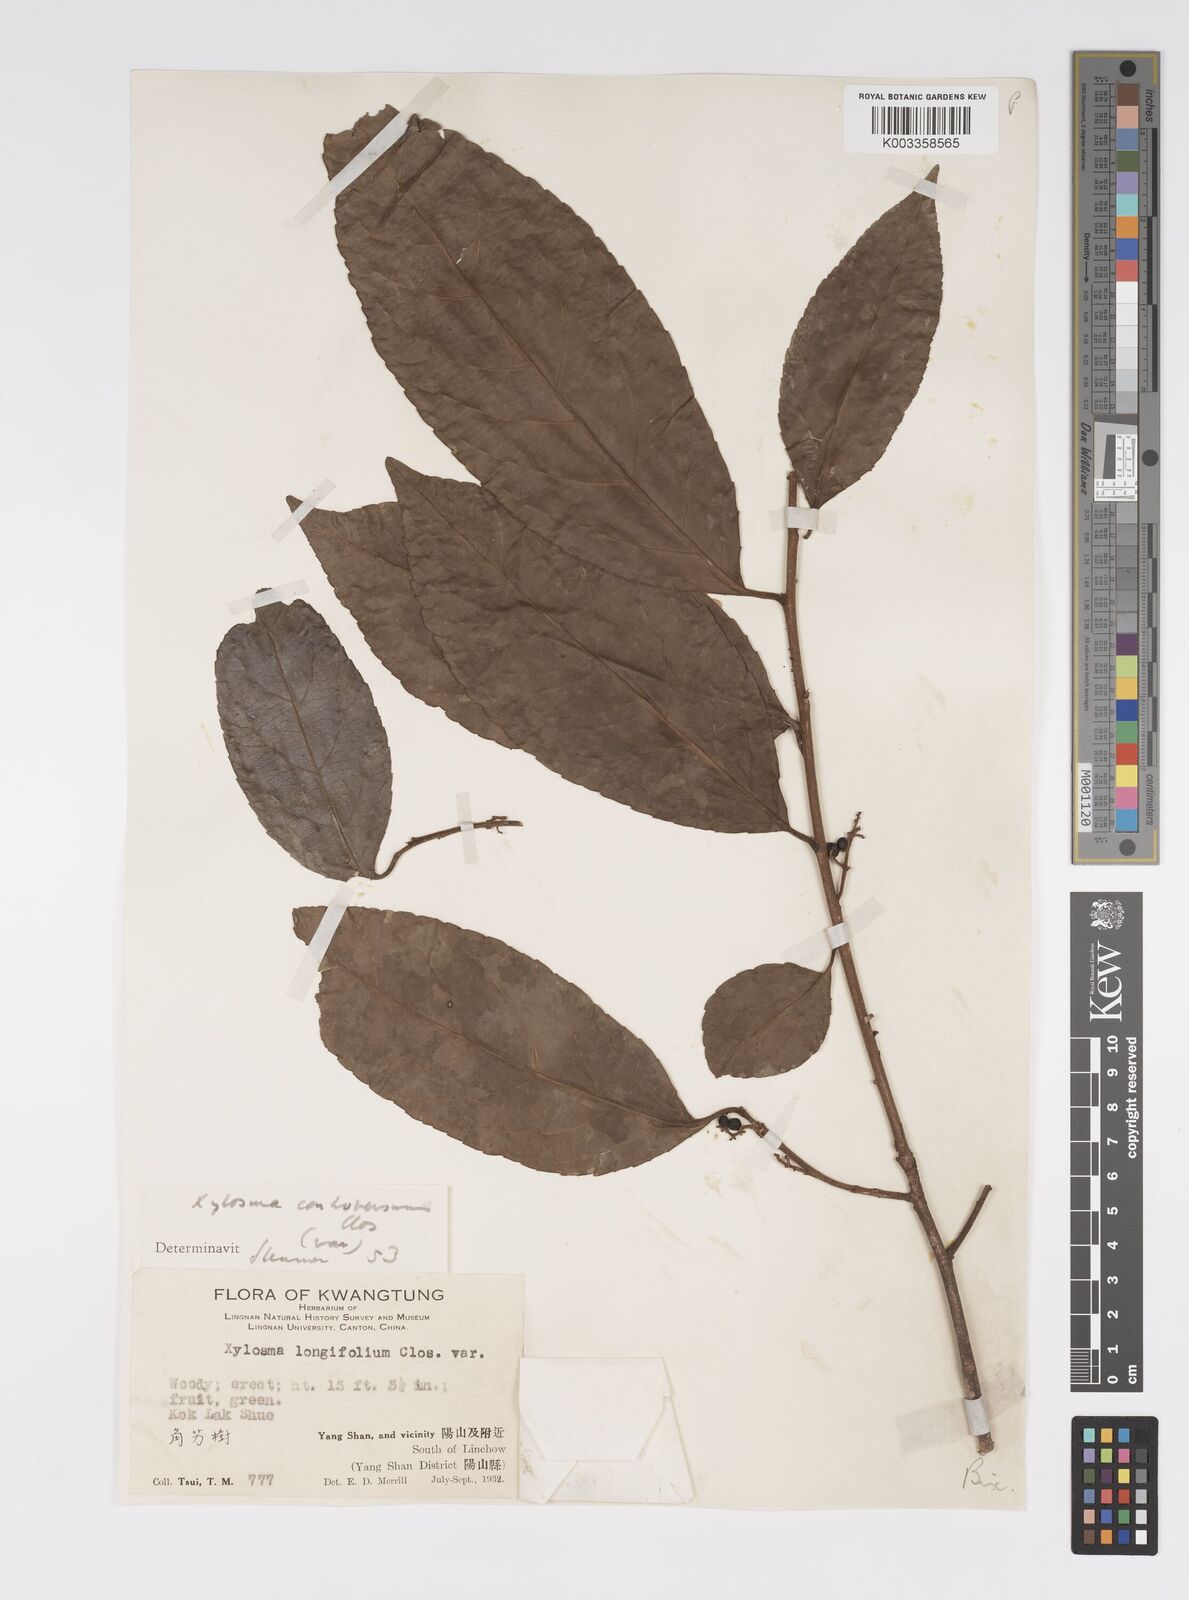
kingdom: Plantae
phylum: Tracheophyta
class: Magnoliopsida
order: Malpighiales
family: Salicaceae
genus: Xylosma
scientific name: Xylosma controversa
